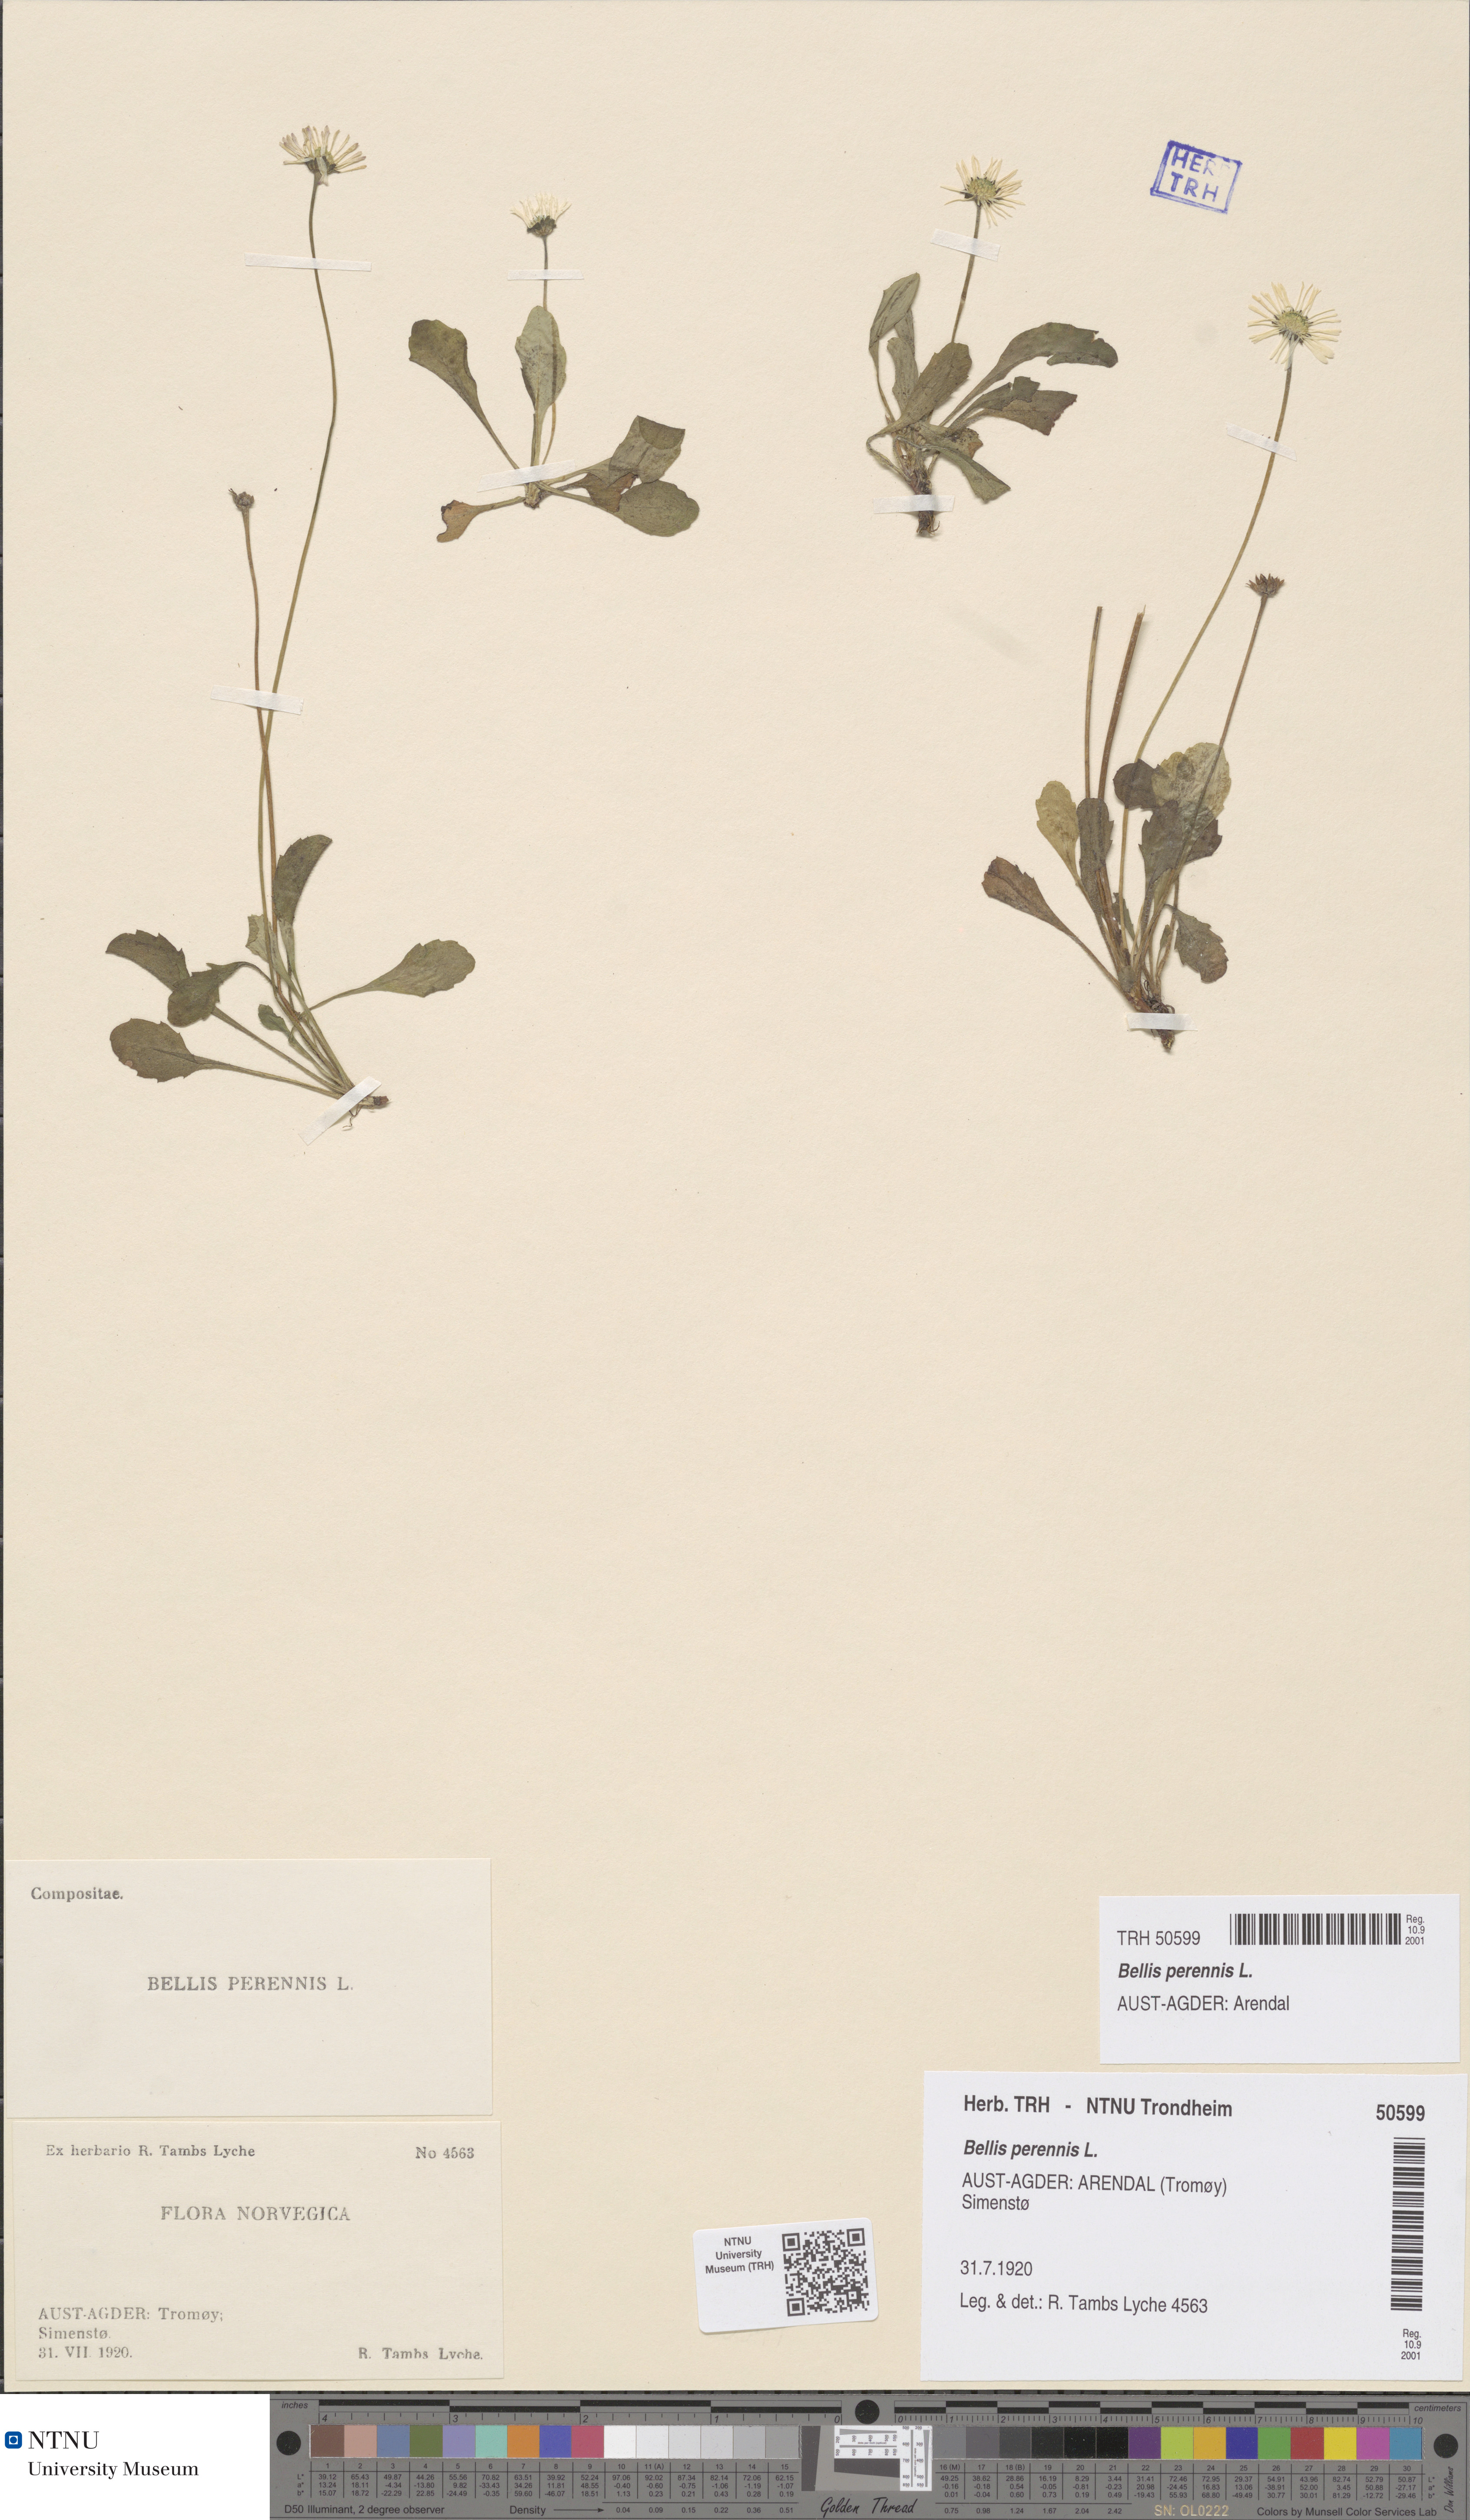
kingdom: Plantae
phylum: Tracheophyta
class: Magnoliopsida
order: Asterales
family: Asteraceae
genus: Bellis
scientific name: Bellis perennis
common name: Lawndaisy
